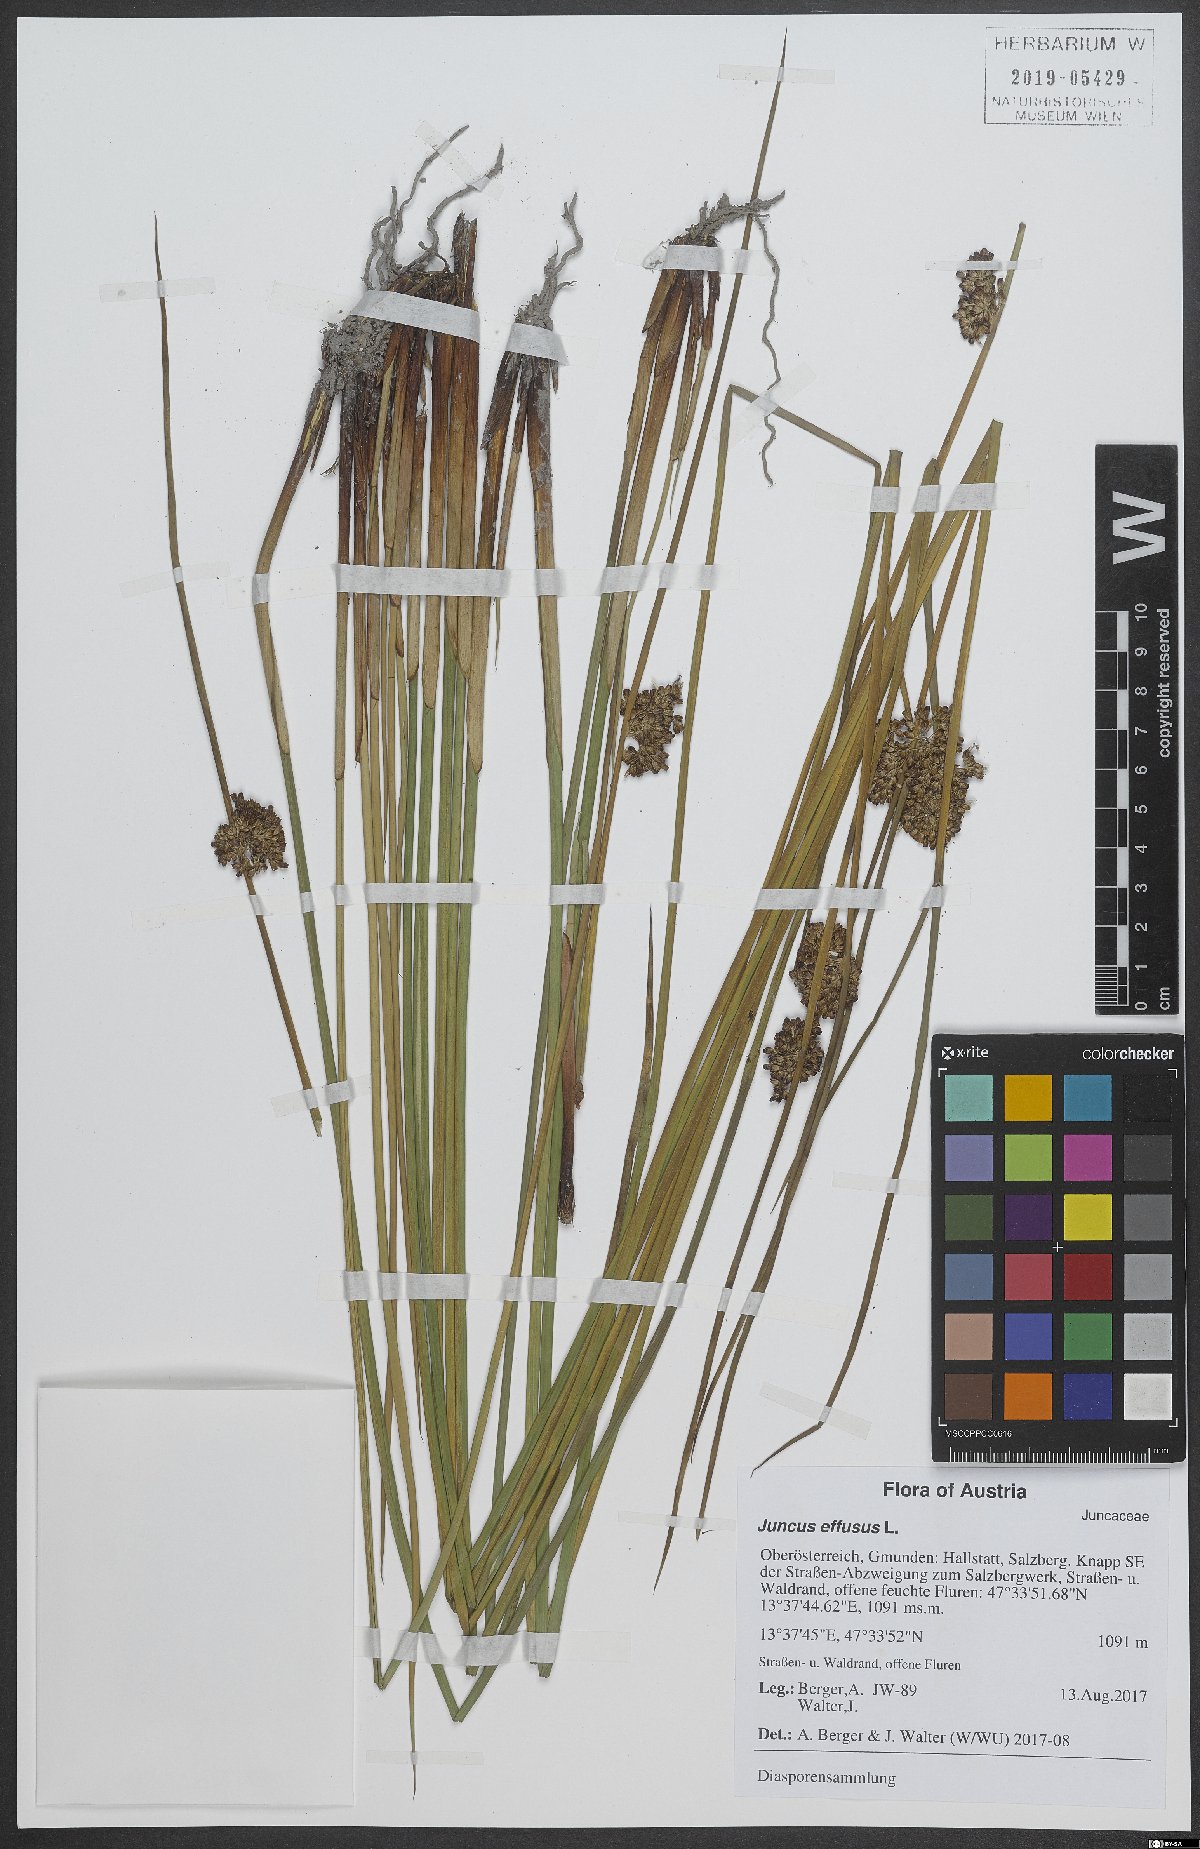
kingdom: Plantae
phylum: Tracheophyta
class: Liliopsida
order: Poales
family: Juncaceae
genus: Juncus
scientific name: Juncus effusus
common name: Soft rush
